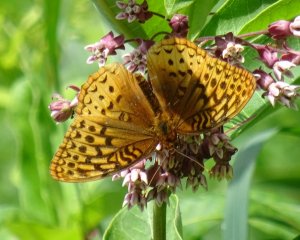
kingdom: Animalia
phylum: Arthropoda
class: Insecta
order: Lepidoptera
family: Nymphalidae
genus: Speyeria
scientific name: Speyeria cybele
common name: Great Spangled Fritillary
